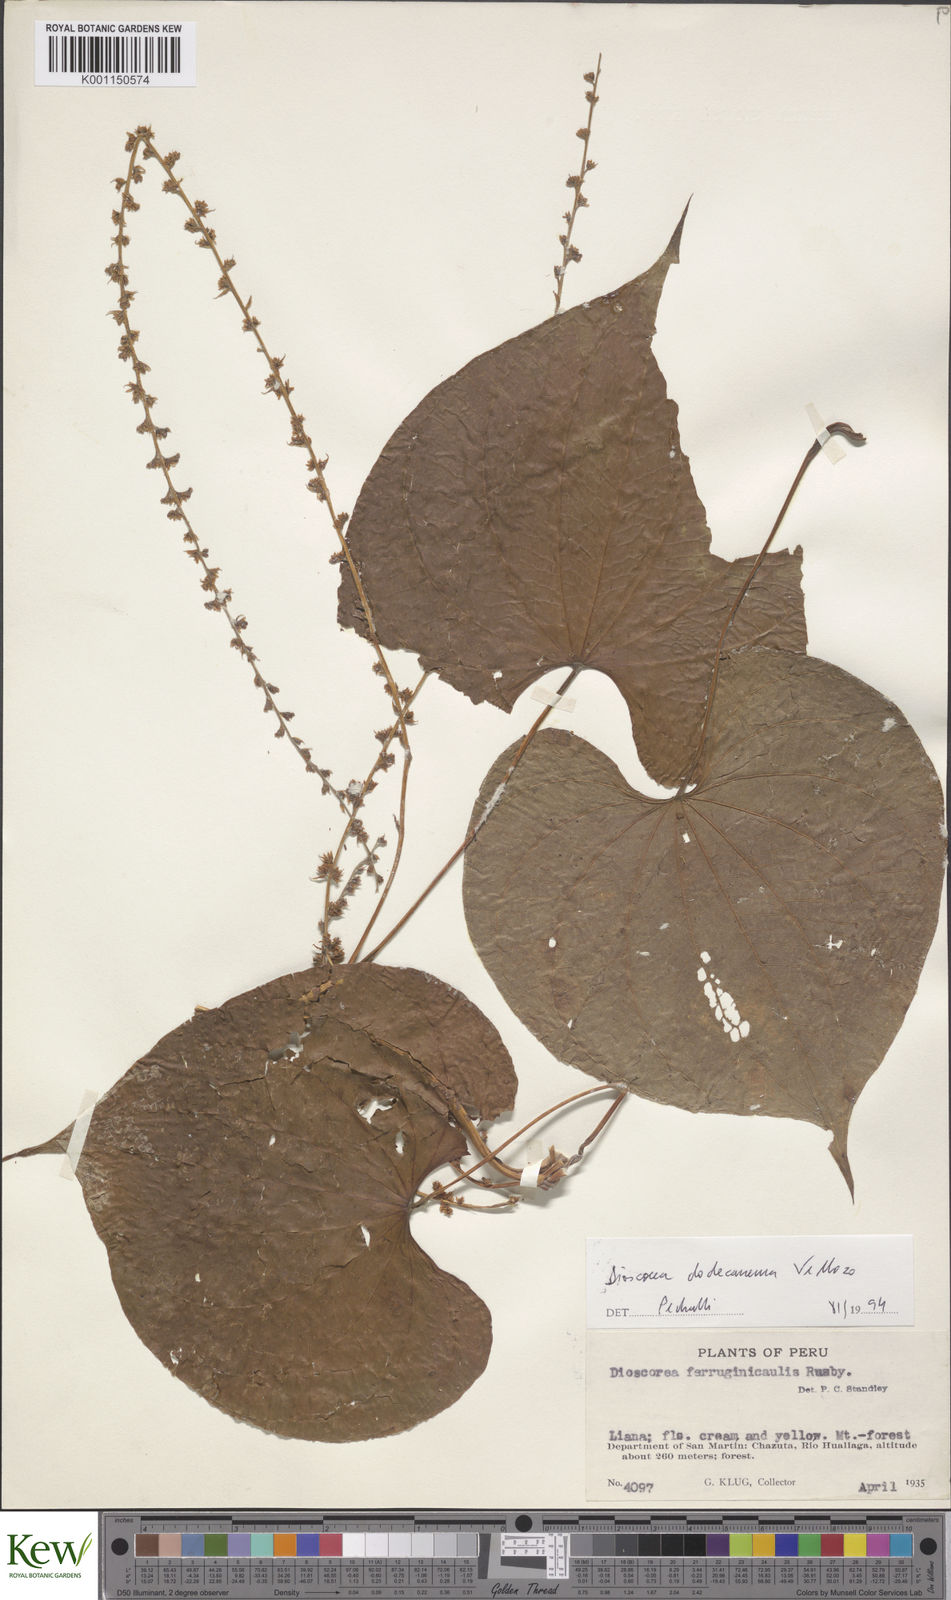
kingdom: Plantae
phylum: Tracheophyta
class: Liliopsida
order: Dioscoreales
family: Dioscoreaceae
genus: Dioscorea
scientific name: Dioscorea stegelmanniana
